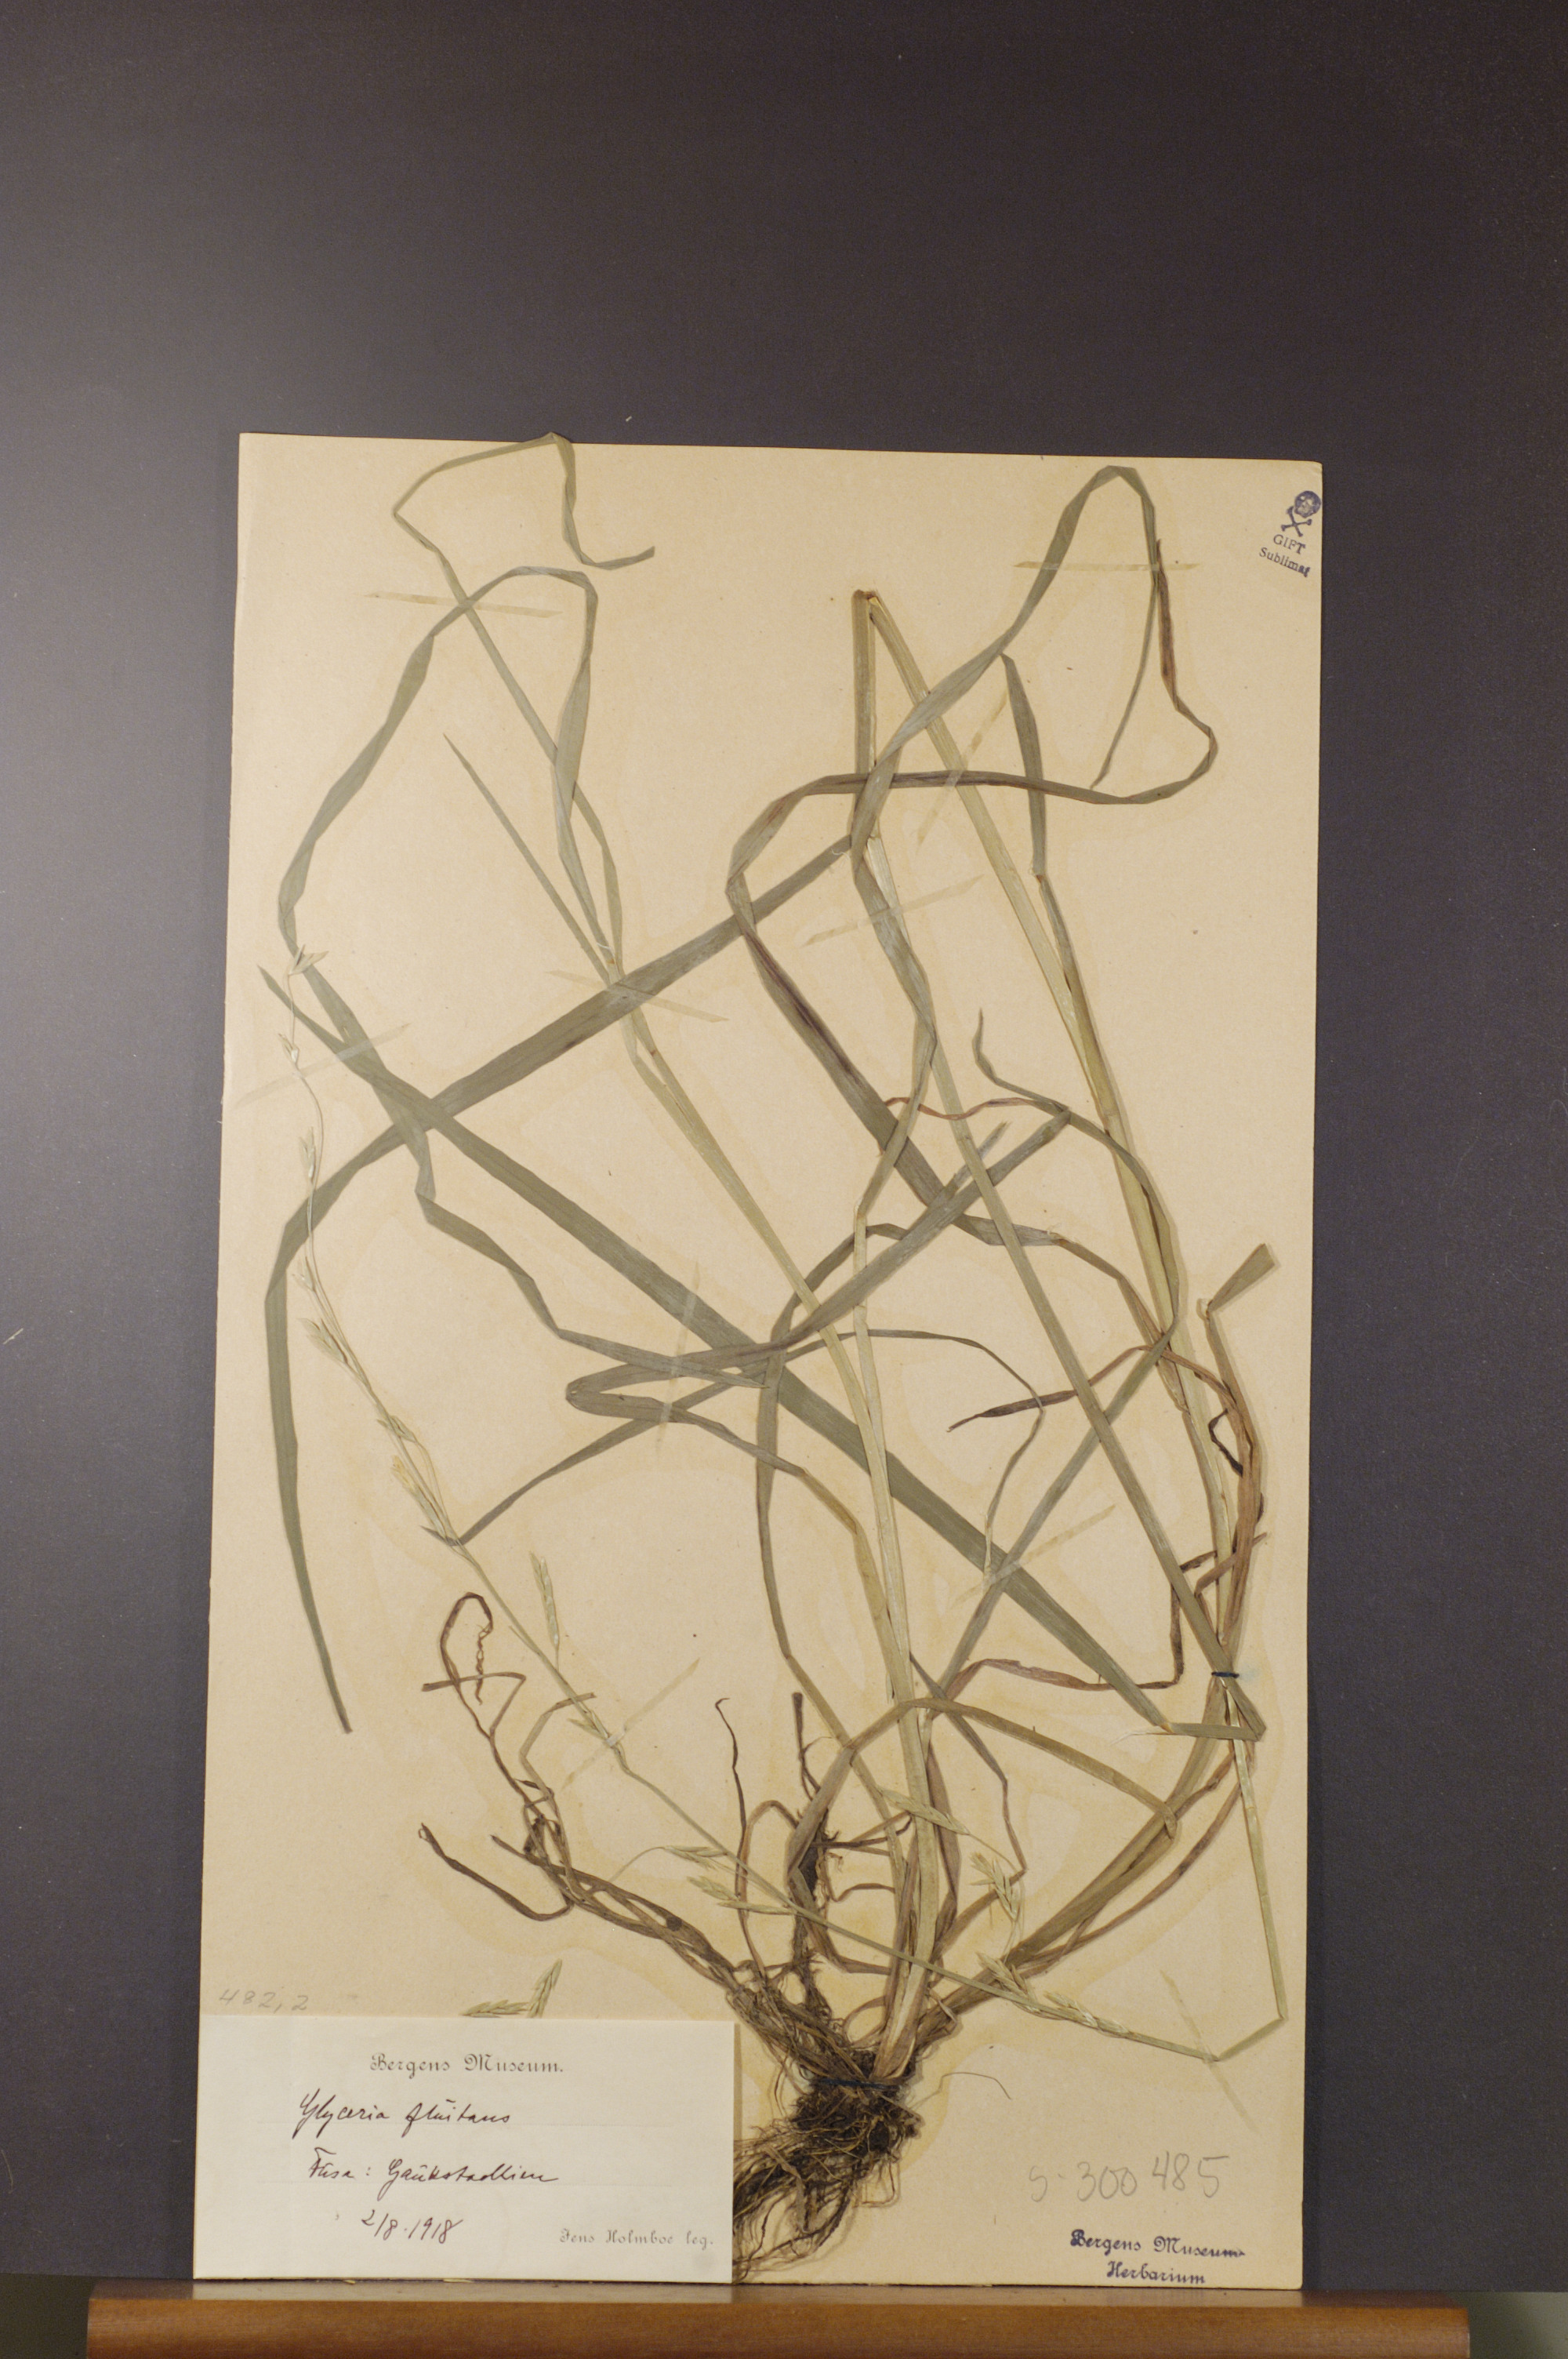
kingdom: Plantae
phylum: Tracheophyta
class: Liliopsida
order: Poales
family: Poaceae
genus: Glyceria
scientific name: Glyceria fluitans
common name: Floating sweet-grass
